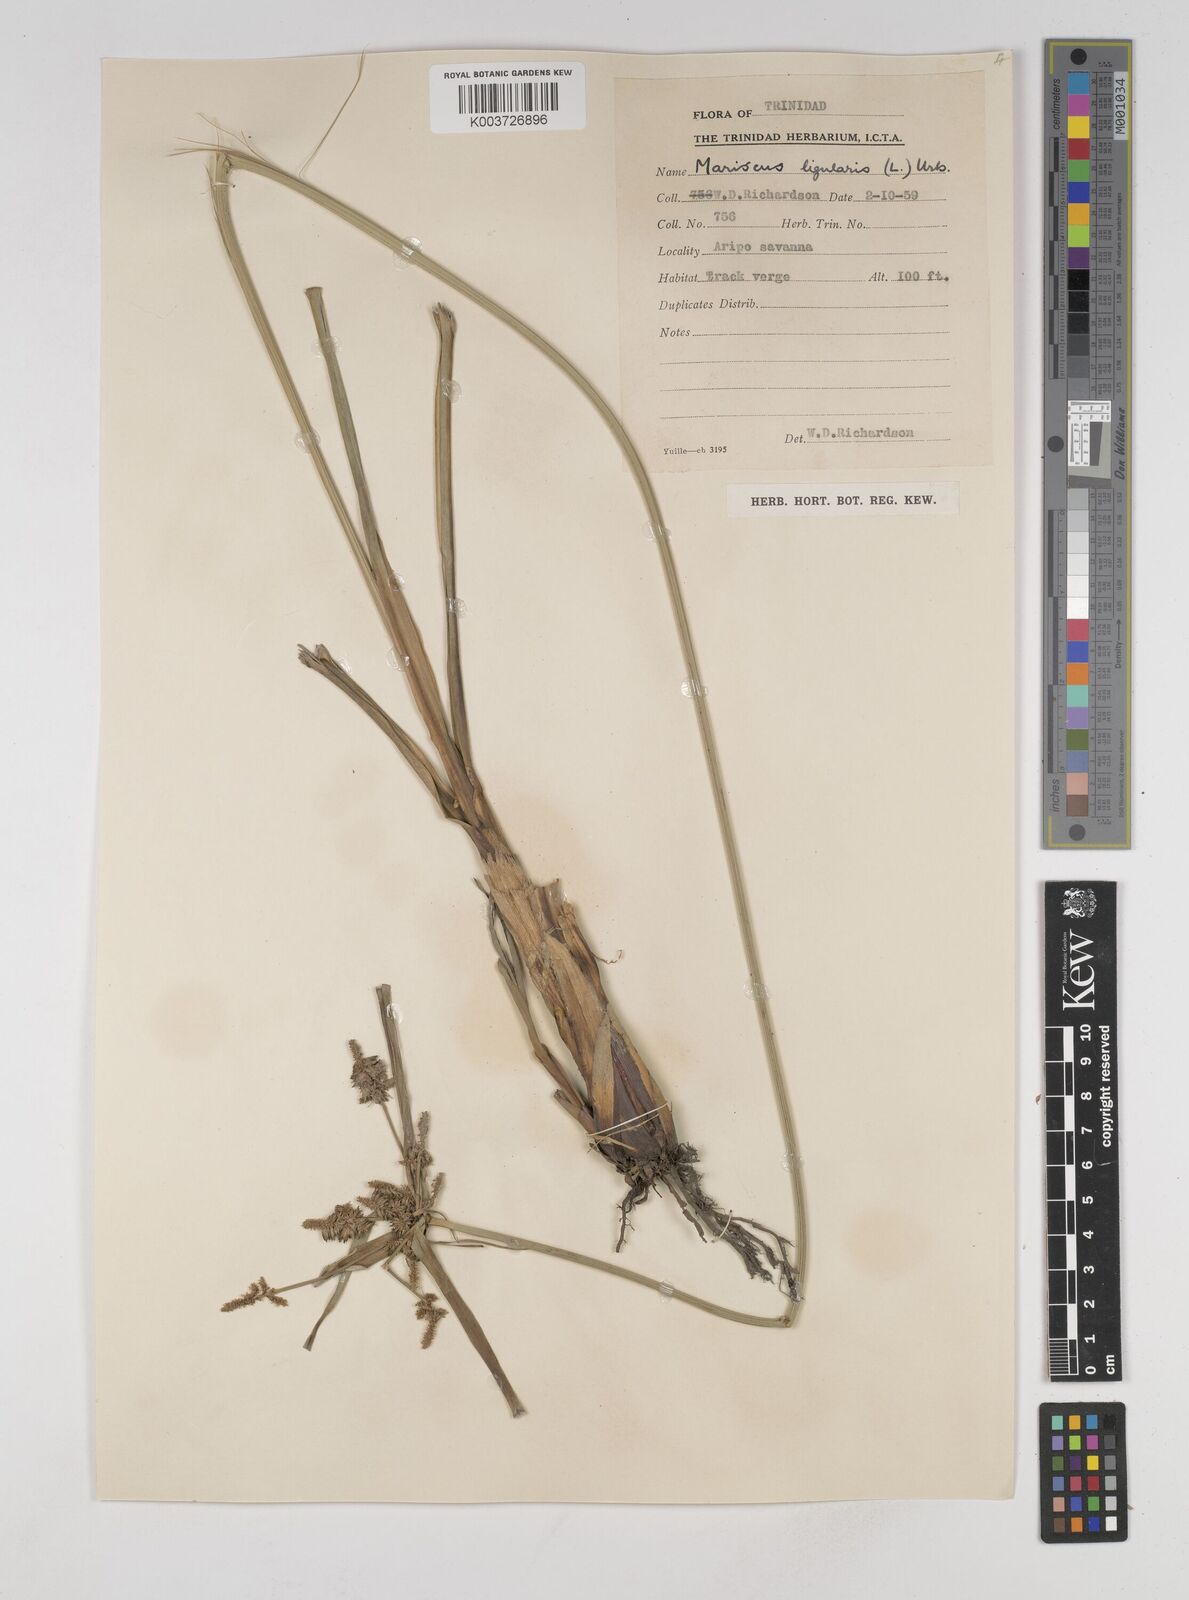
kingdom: Plantae
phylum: Tracheophyta
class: Liliopsida
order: Poales
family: Cyperaceae
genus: Cyperus
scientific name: Cyperus ligularis
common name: Swamp flat sedge
